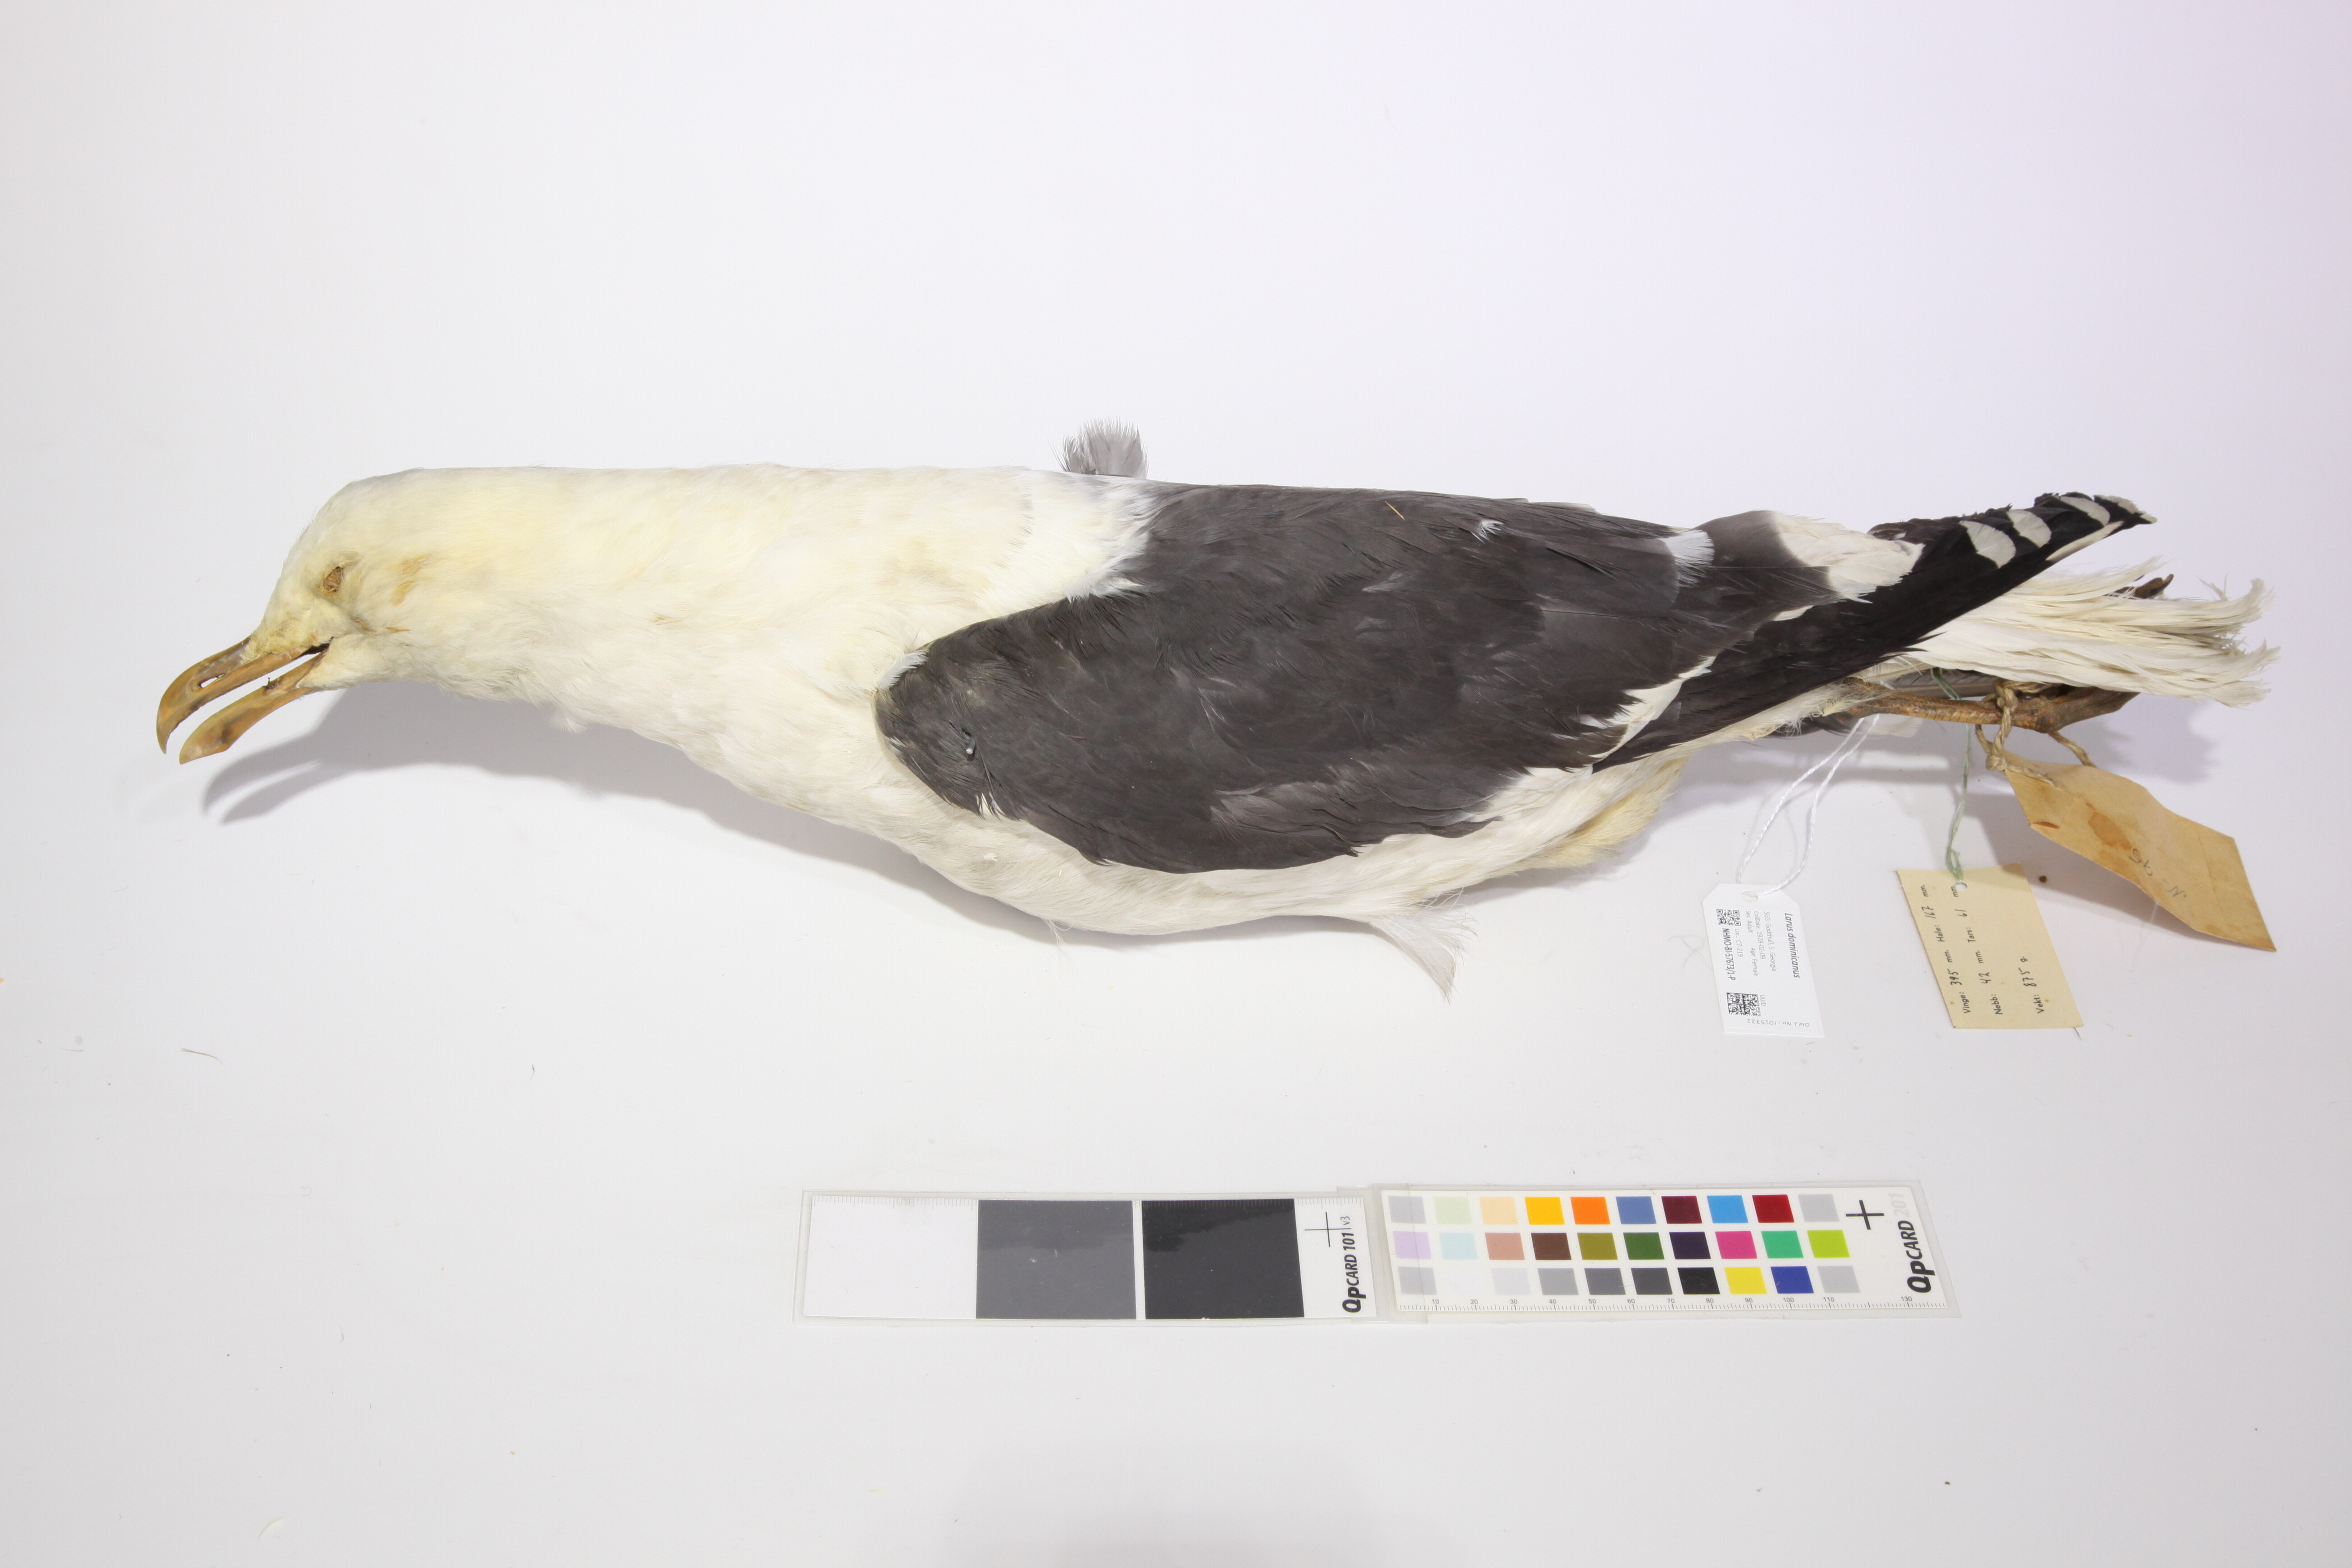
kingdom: Animalia
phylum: Chordata
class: Aves
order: Charadriiformes
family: Laridae
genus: Larus
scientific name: Larus dominicanus
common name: Kelp gull
